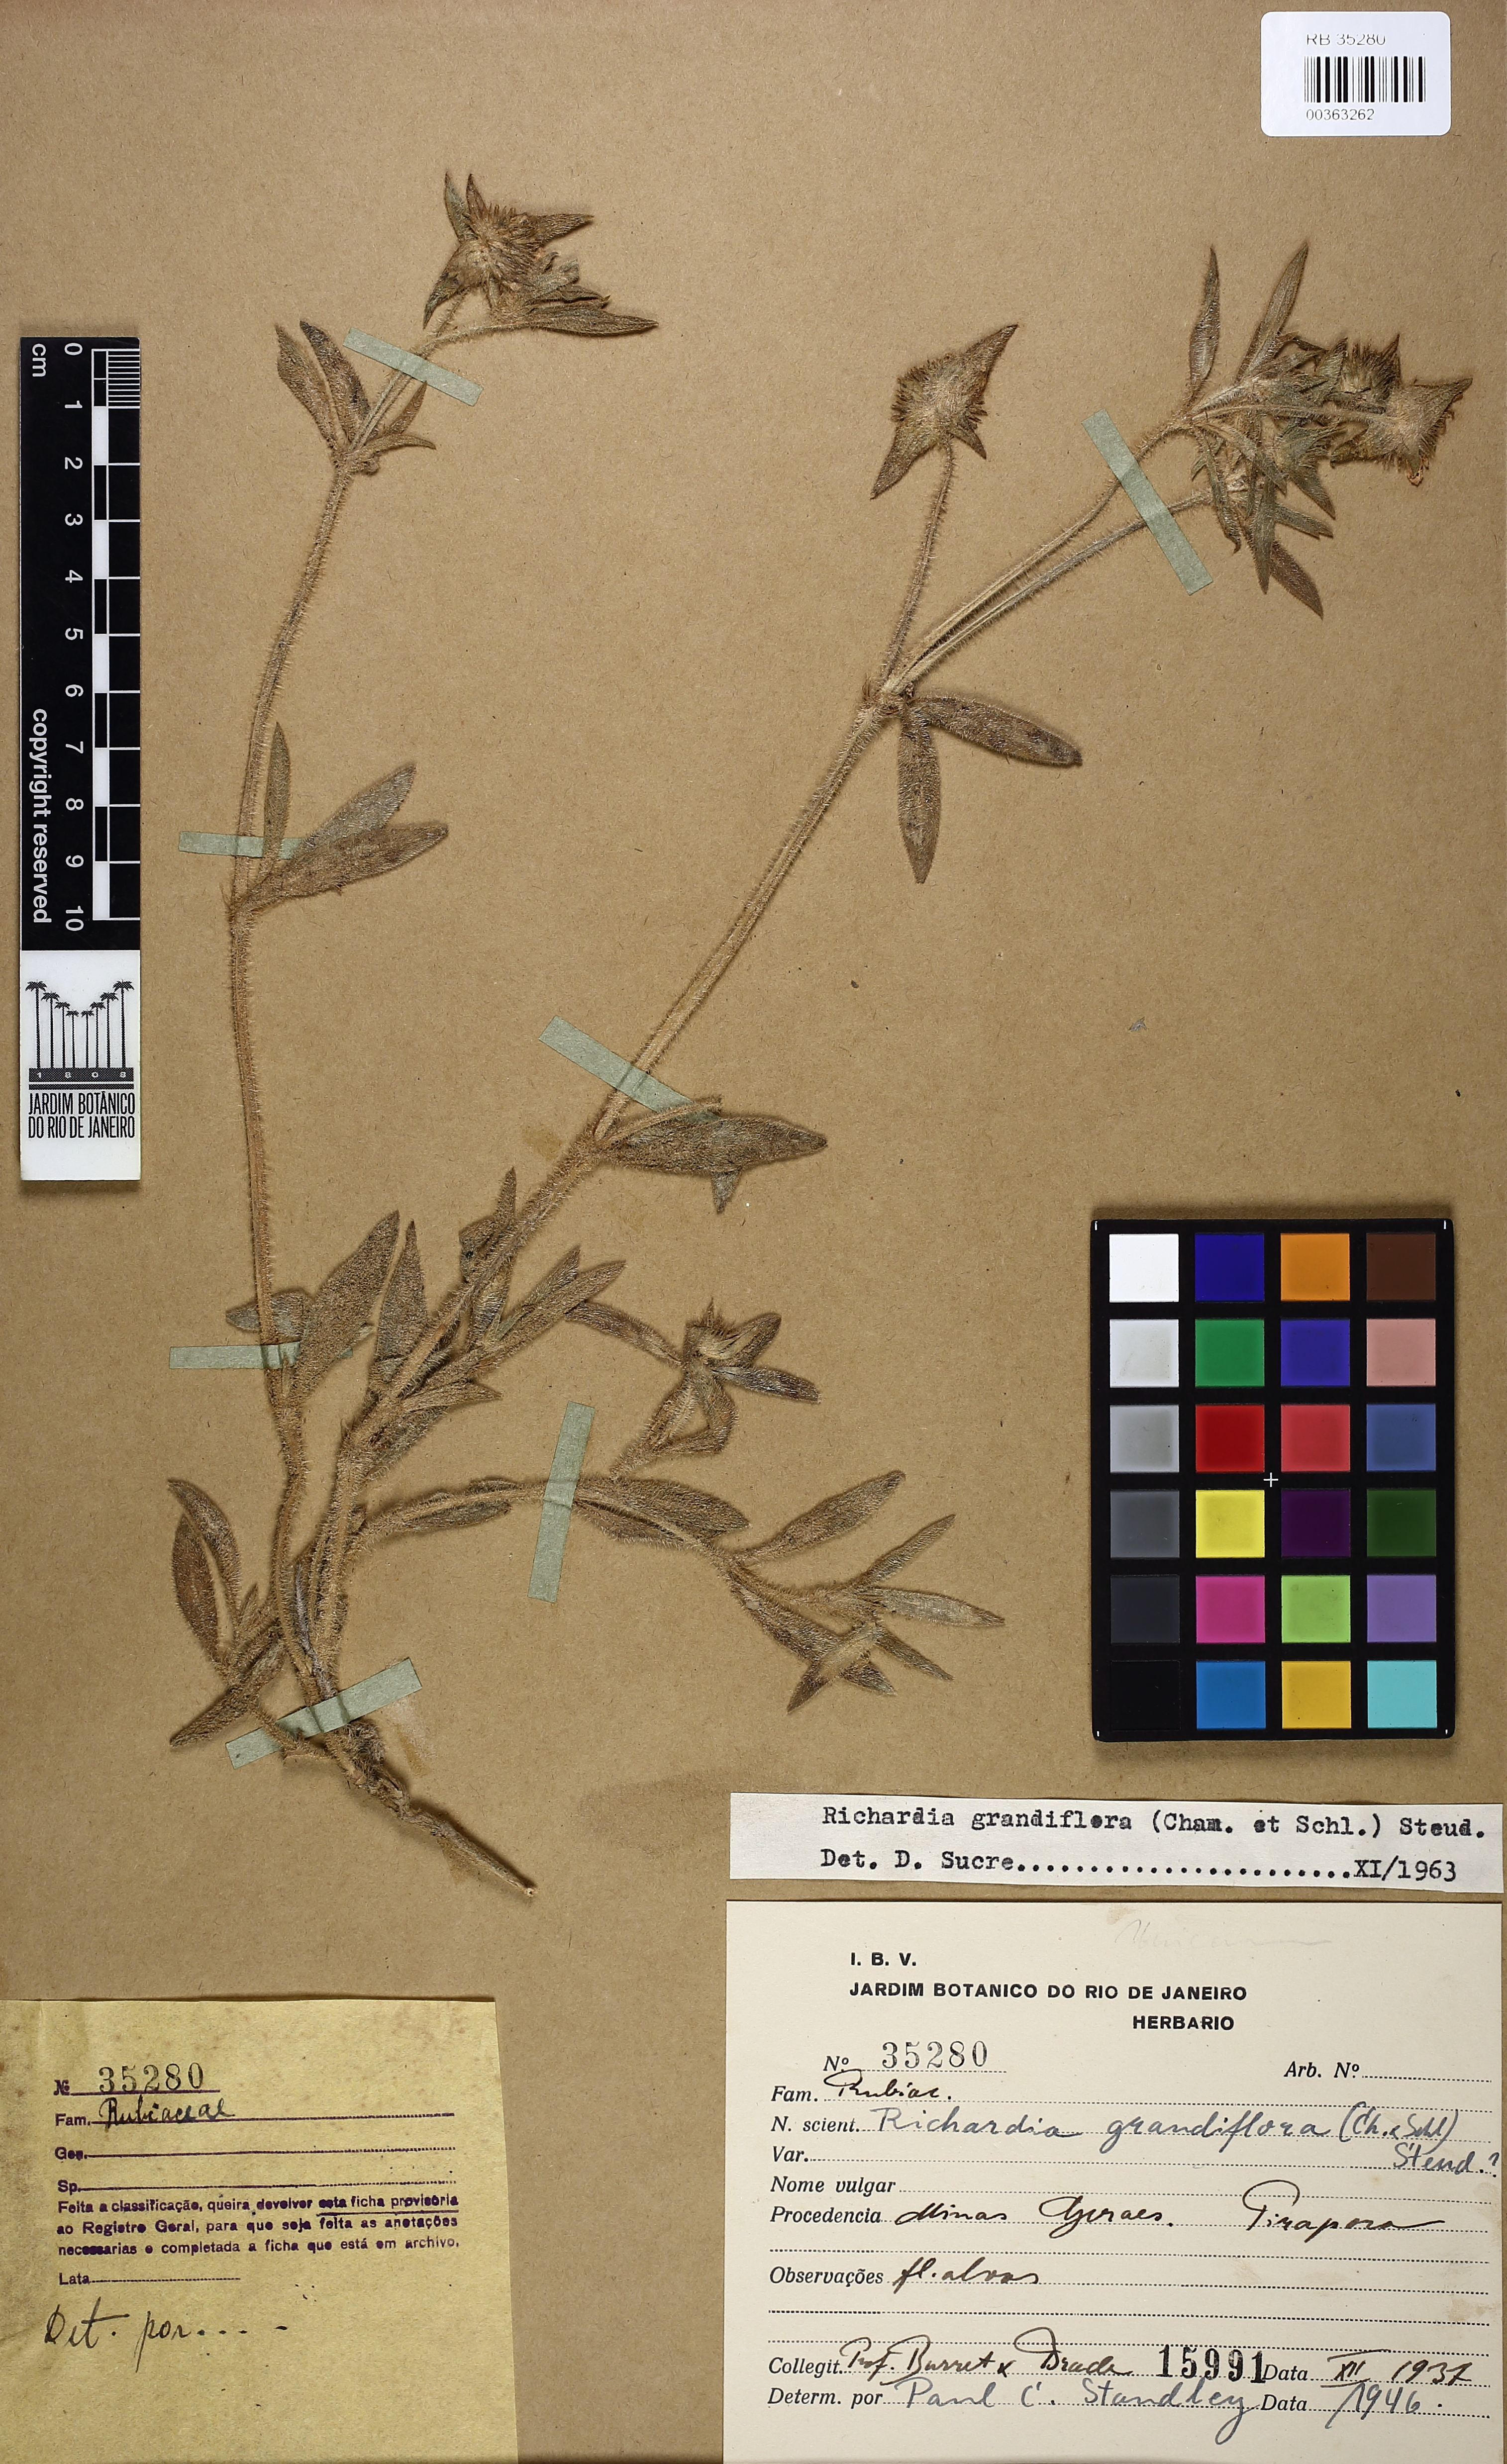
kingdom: Plantae
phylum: Tracheophyta
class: Magnoliopsida
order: Gentianales
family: Rubiaceae
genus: Richardia
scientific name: Richardia grandiflora
